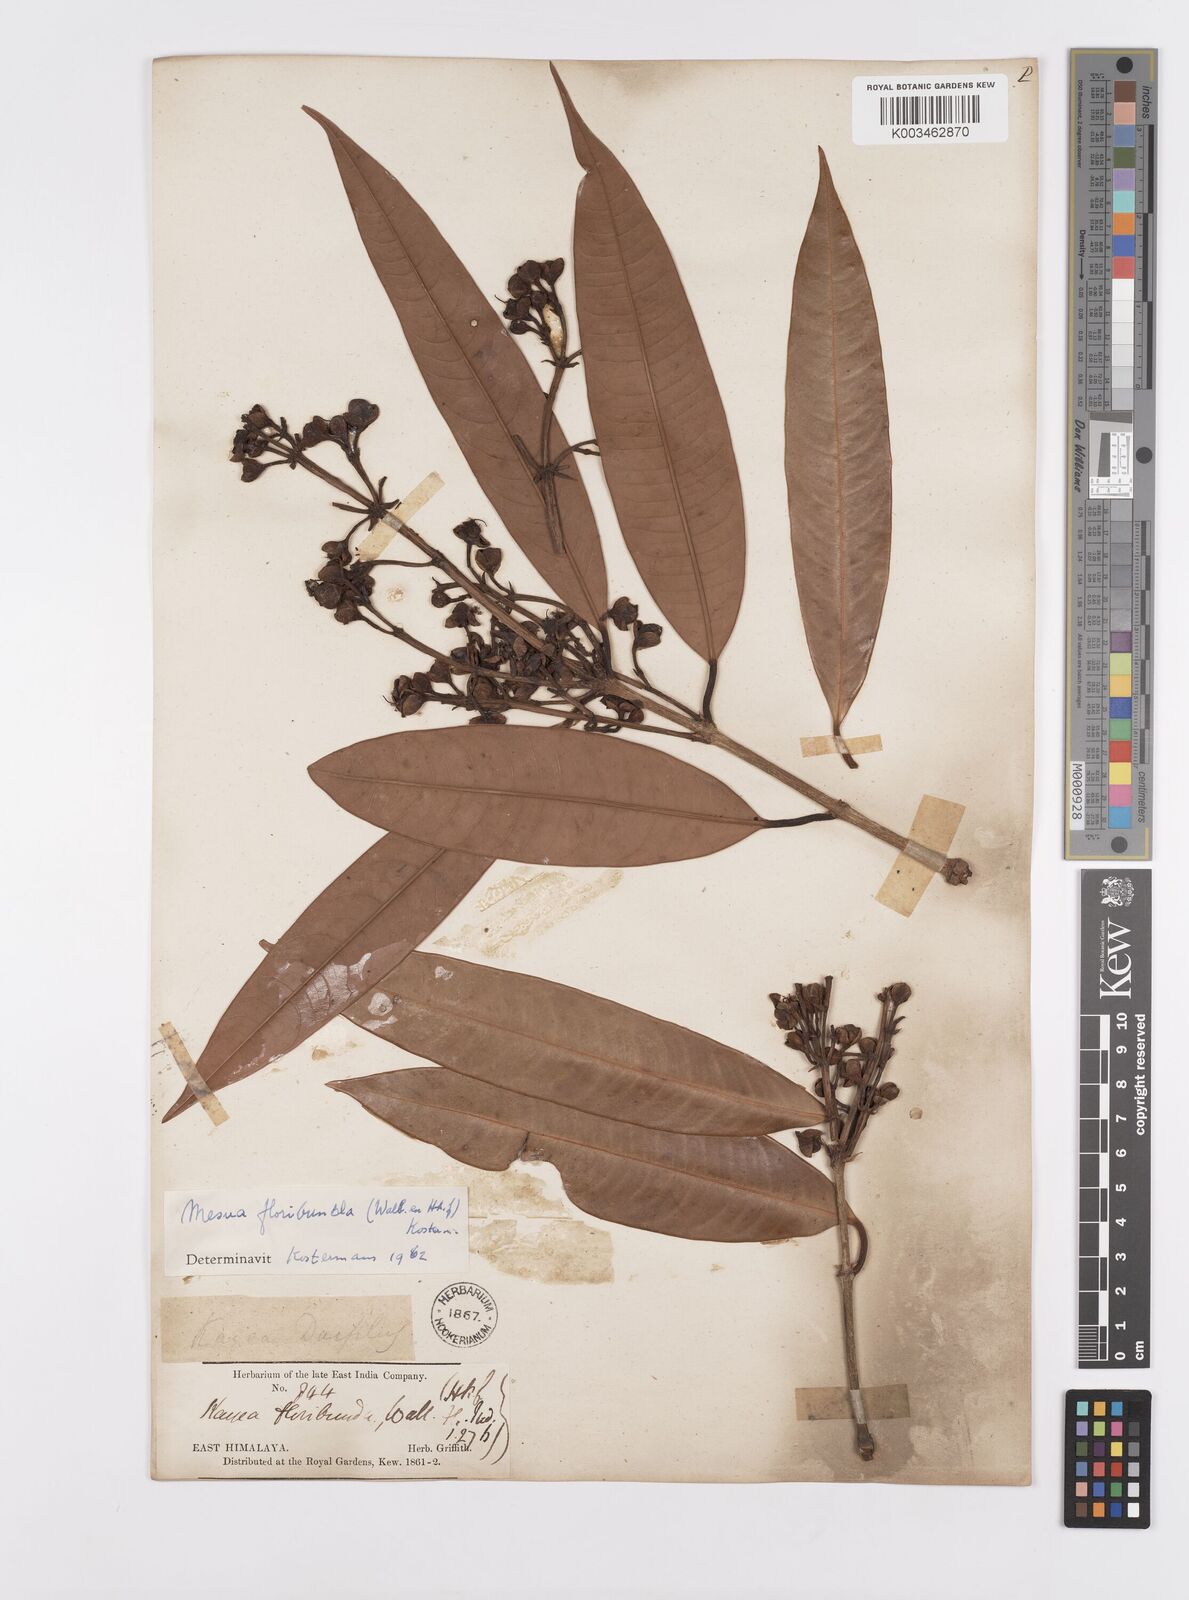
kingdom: Plantae
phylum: Tracheophyta
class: Magnoliopsida
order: Malpighiales
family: Calophyllaceae
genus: Kayea
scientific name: Kayea floribunda
